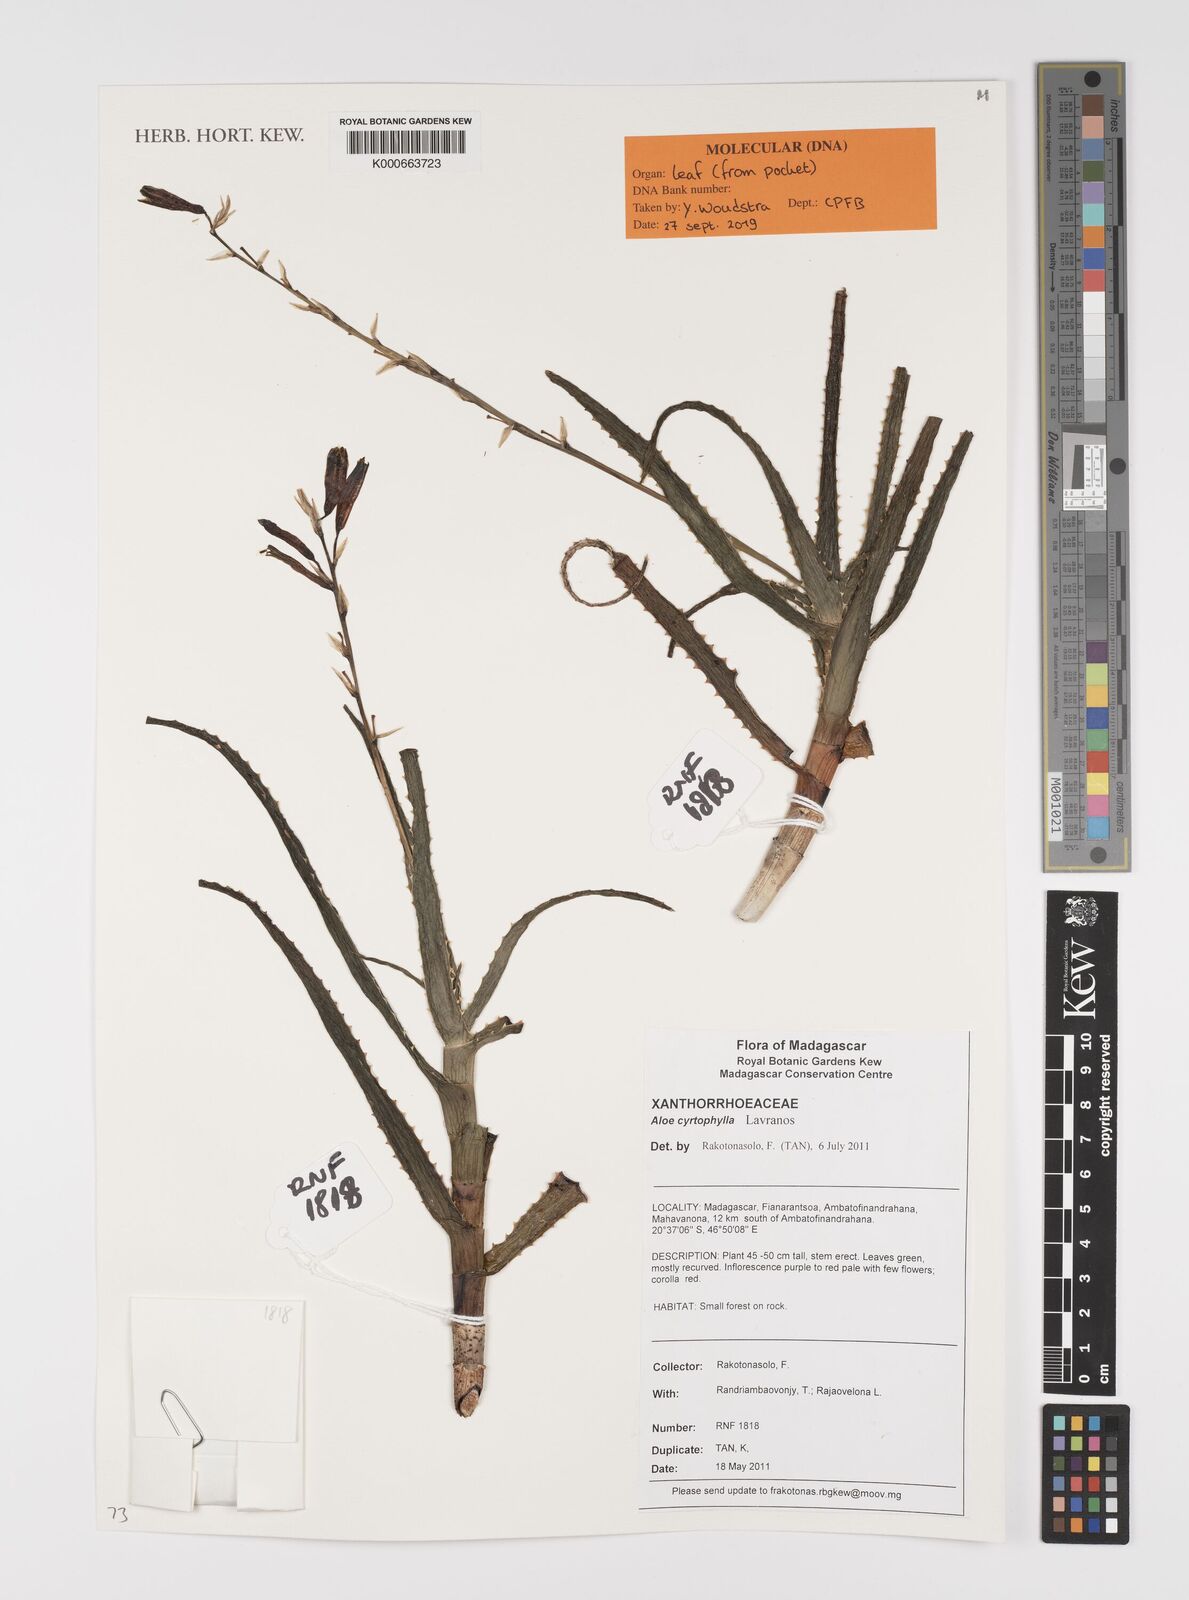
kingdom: Plantae
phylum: Tracheophyta
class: Liliopsida
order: Asparagales
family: Asphodelaceae
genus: Aloe
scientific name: Aloe cyrtophylla
